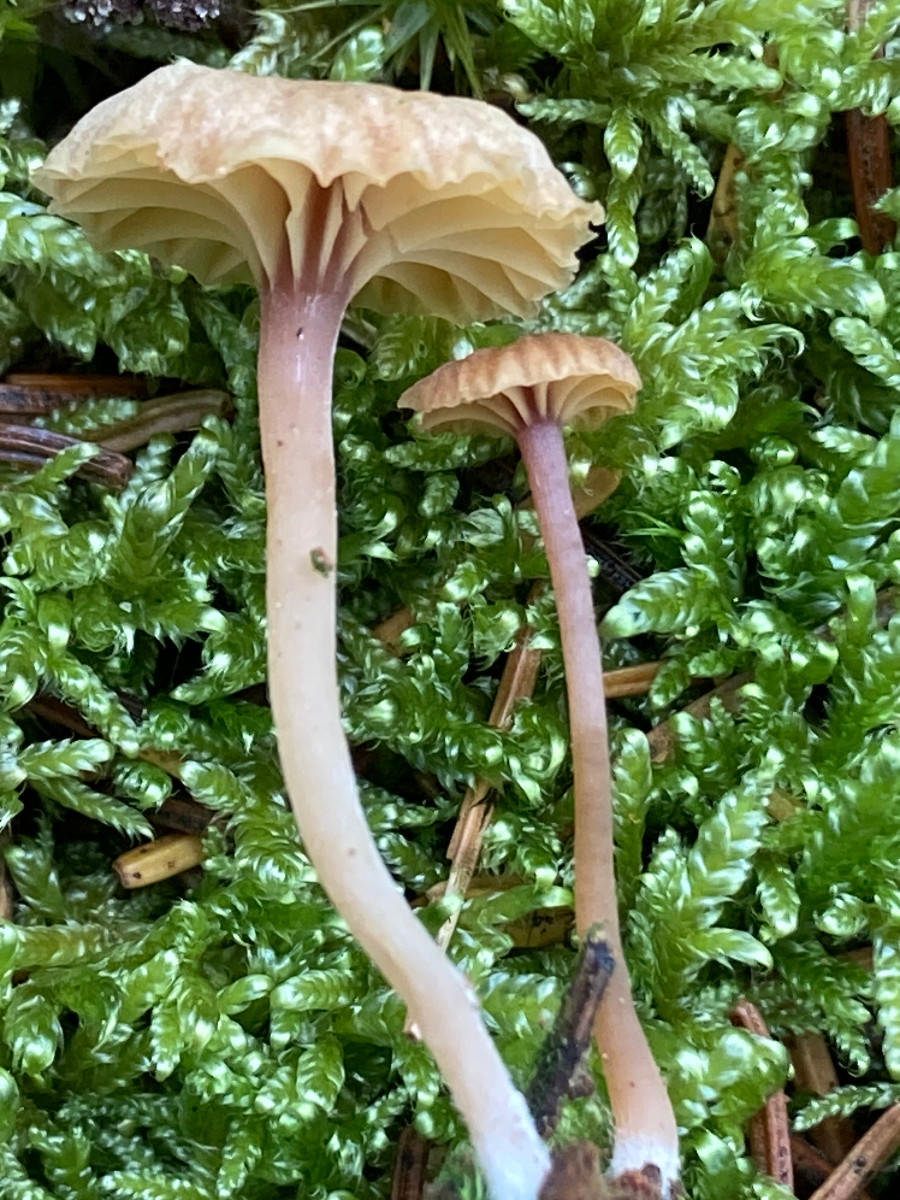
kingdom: Fungi
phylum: Basidiomycota
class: Agaricomycetes
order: Agaricales
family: Hygrophoraceae
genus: Lichenomphalia
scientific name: Lichenomphalia umbellifera
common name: tørve-lavhat
